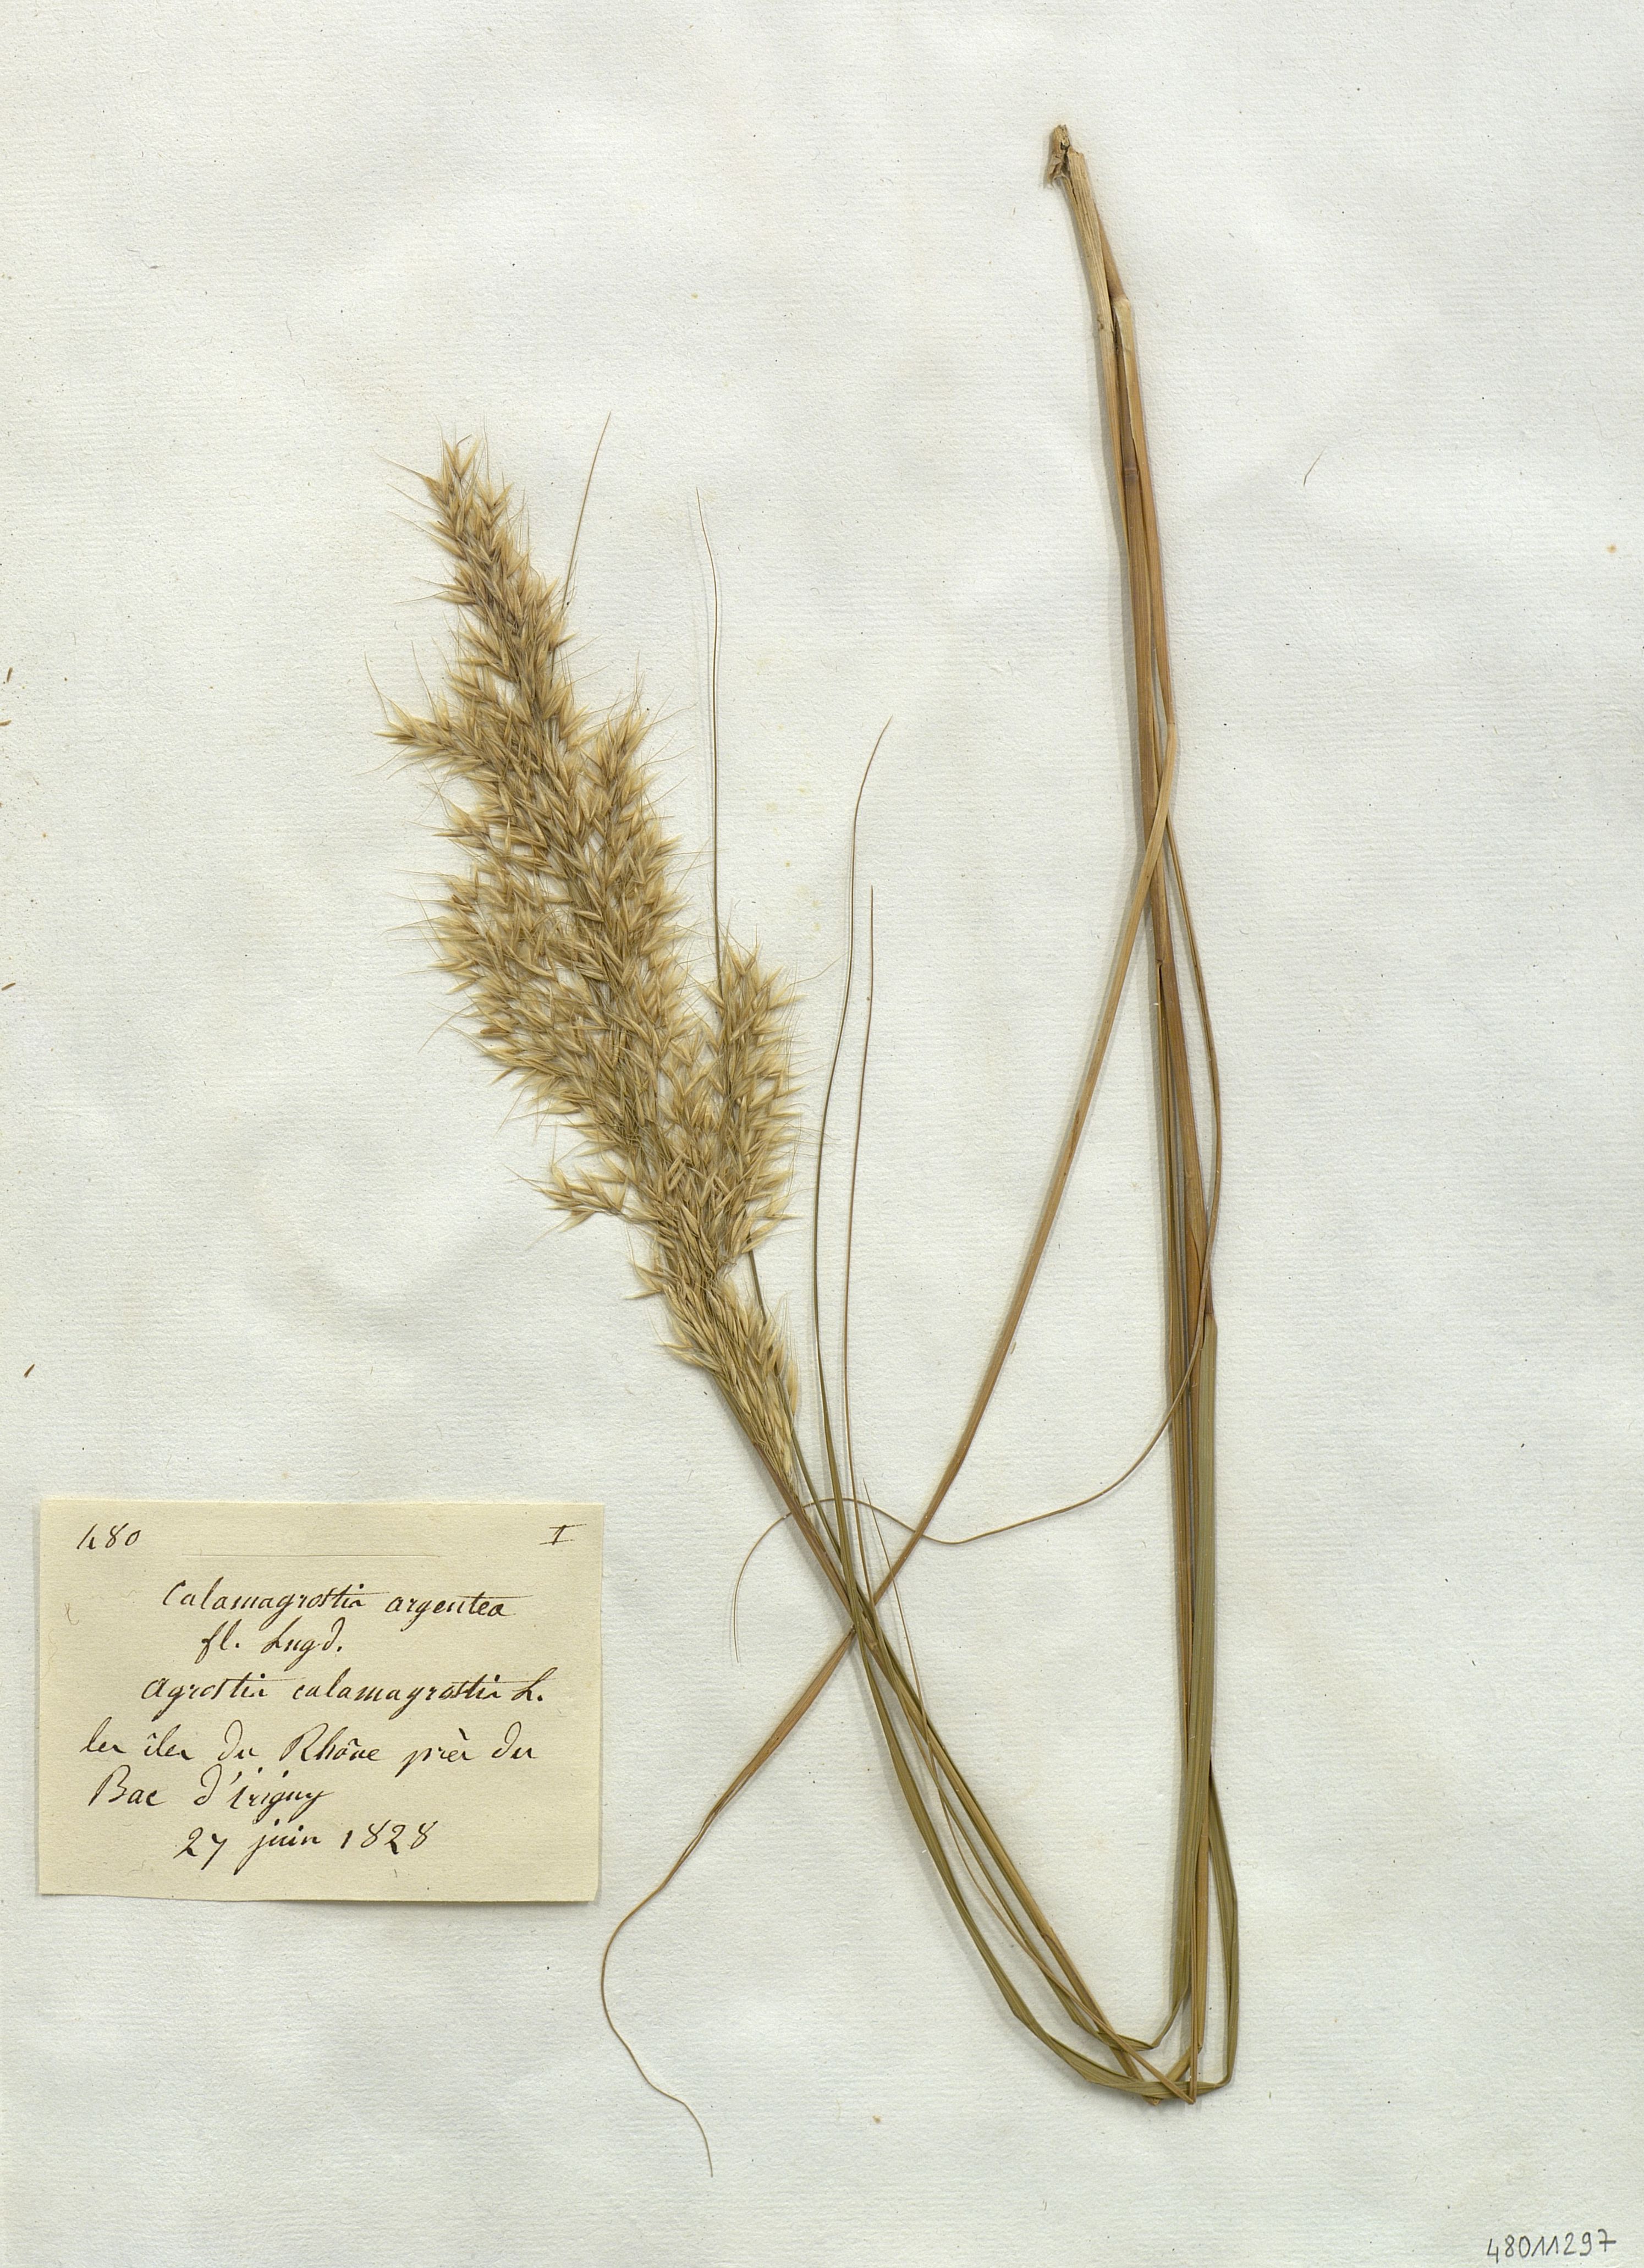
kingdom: Plantae
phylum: Tracheophyta
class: Liliopsida
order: Poales
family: Poaceae
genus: Achnatherum
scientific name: Achnatherum calamagrostis
